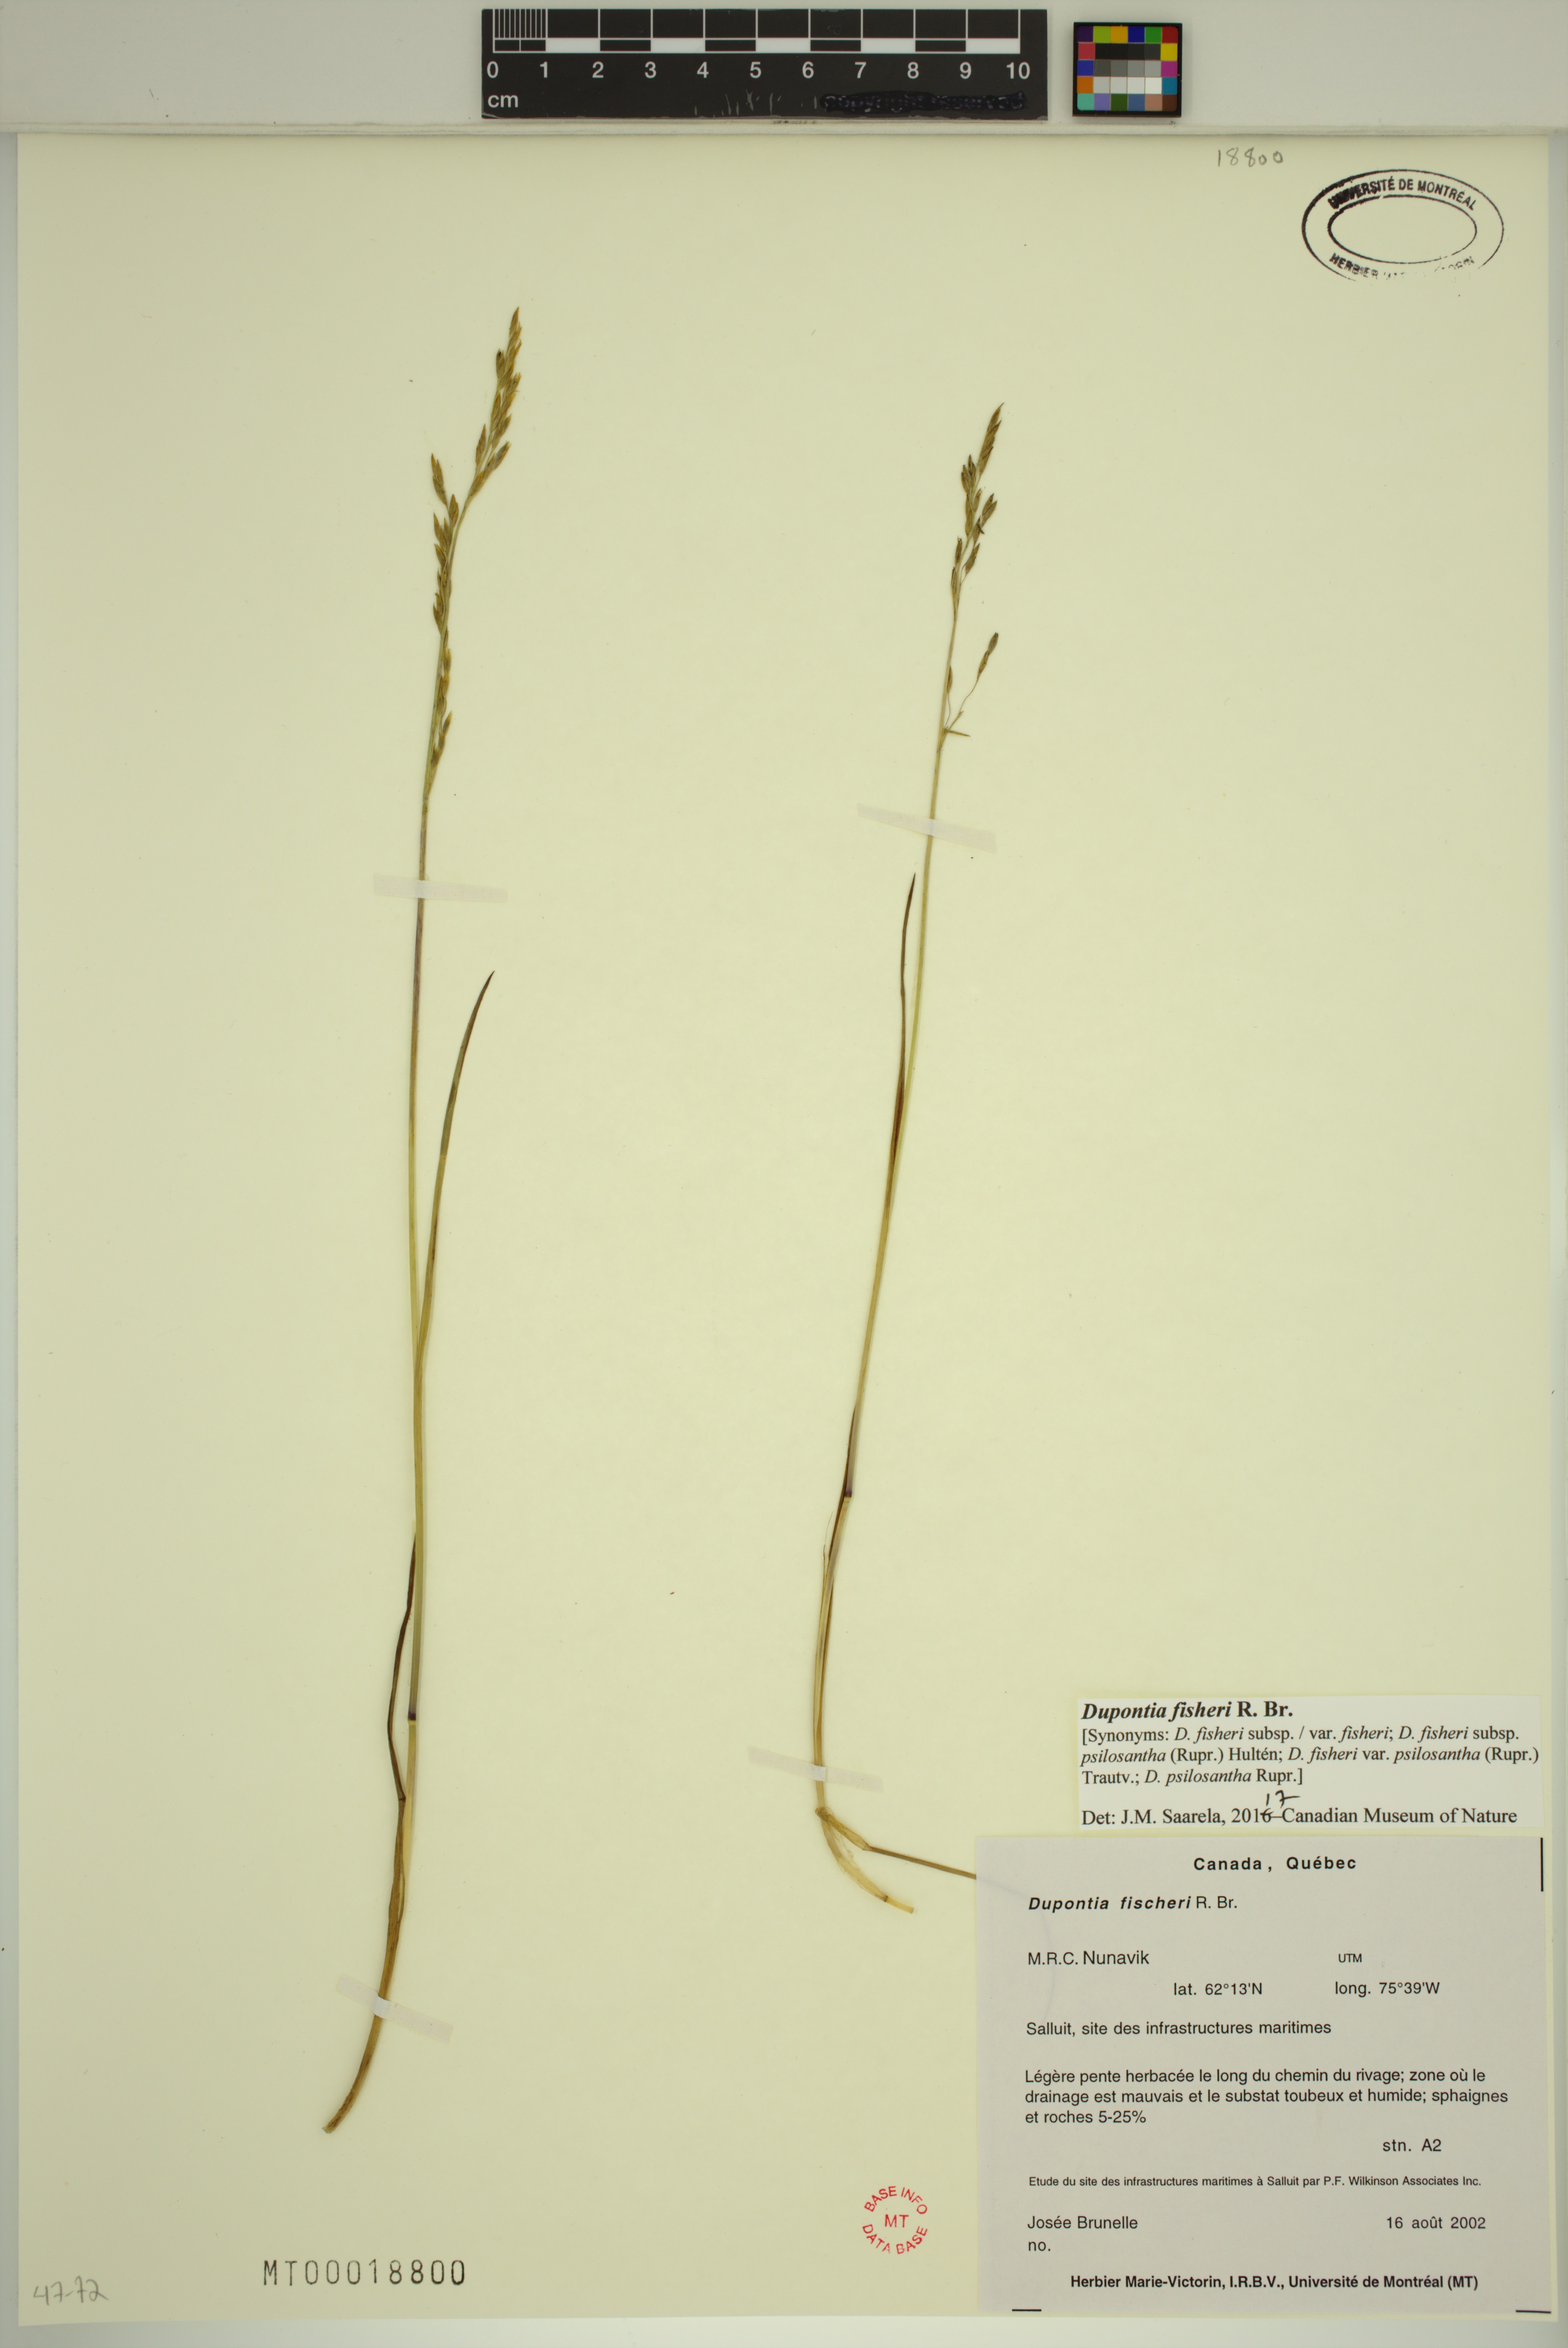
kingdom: Plantae
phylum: Tracheophyta
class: Liliopsida
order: Poales
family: Poaceae
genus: Dupontia
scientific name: Dupontia fisheri
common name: Tundra grass
